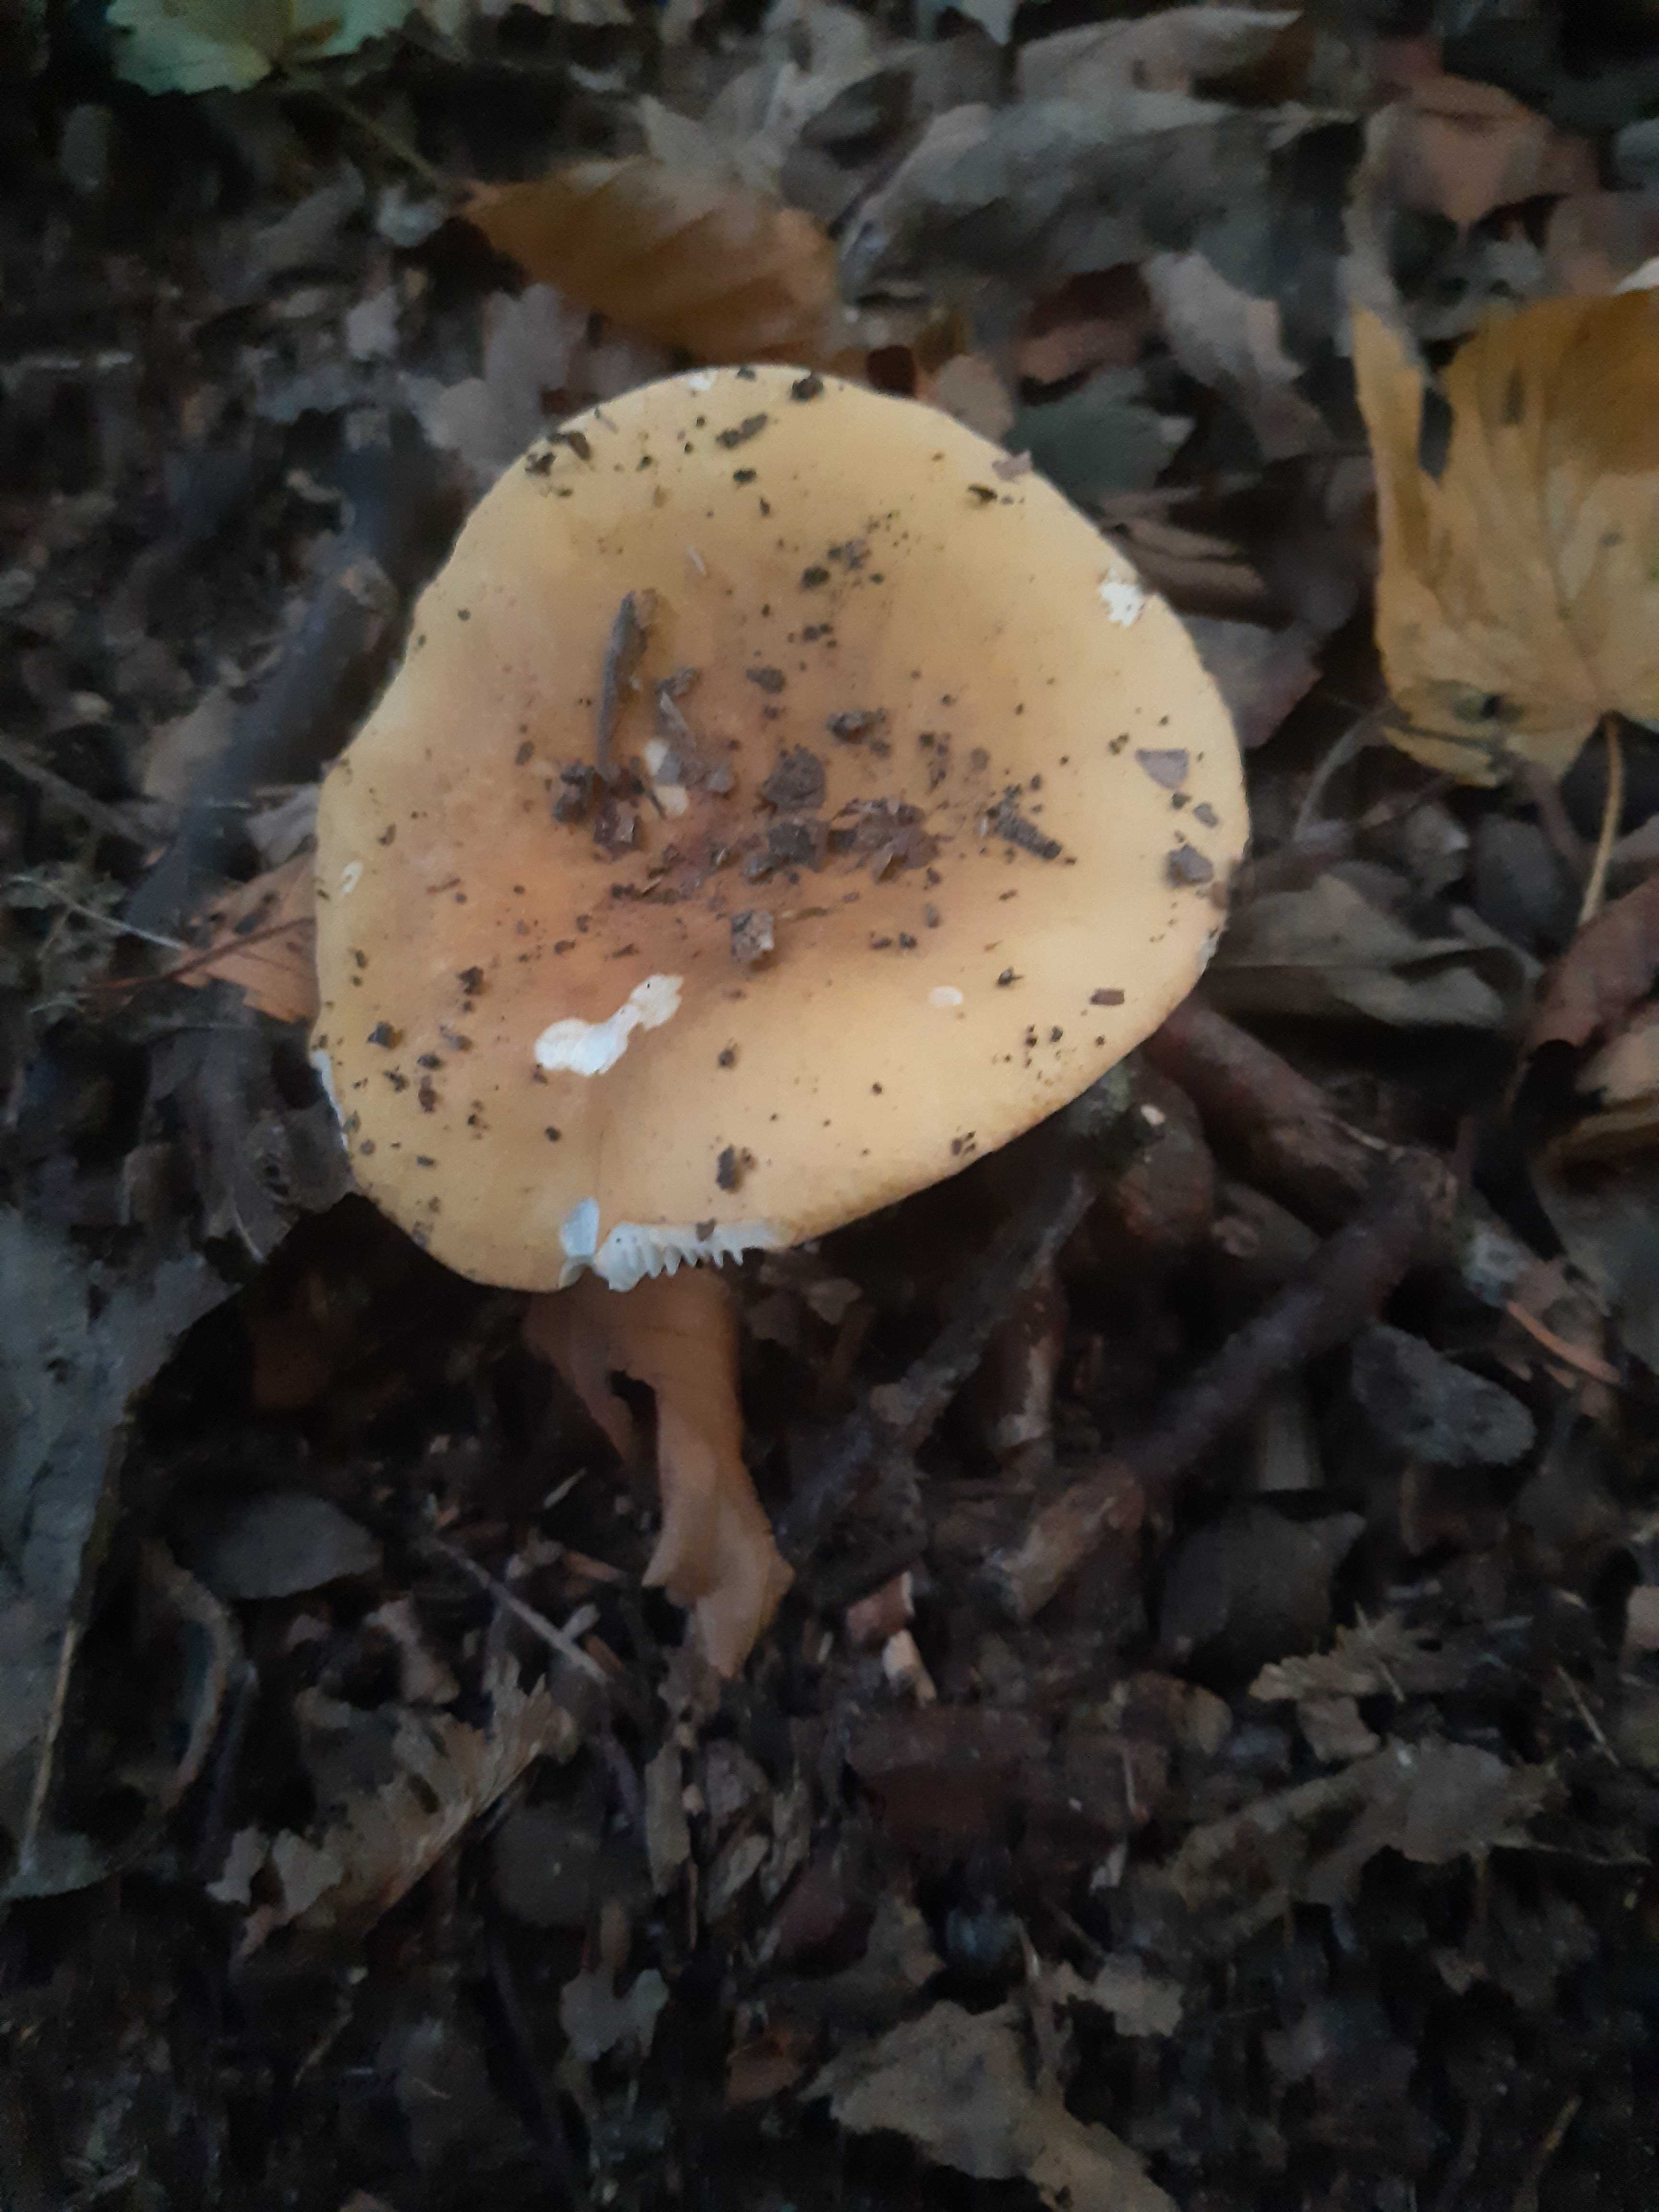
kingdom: Fungi
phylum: Basidiomycota
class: Agaricomycetes
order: Russulales
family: Russulaceae
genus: Russula
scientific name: Russula
